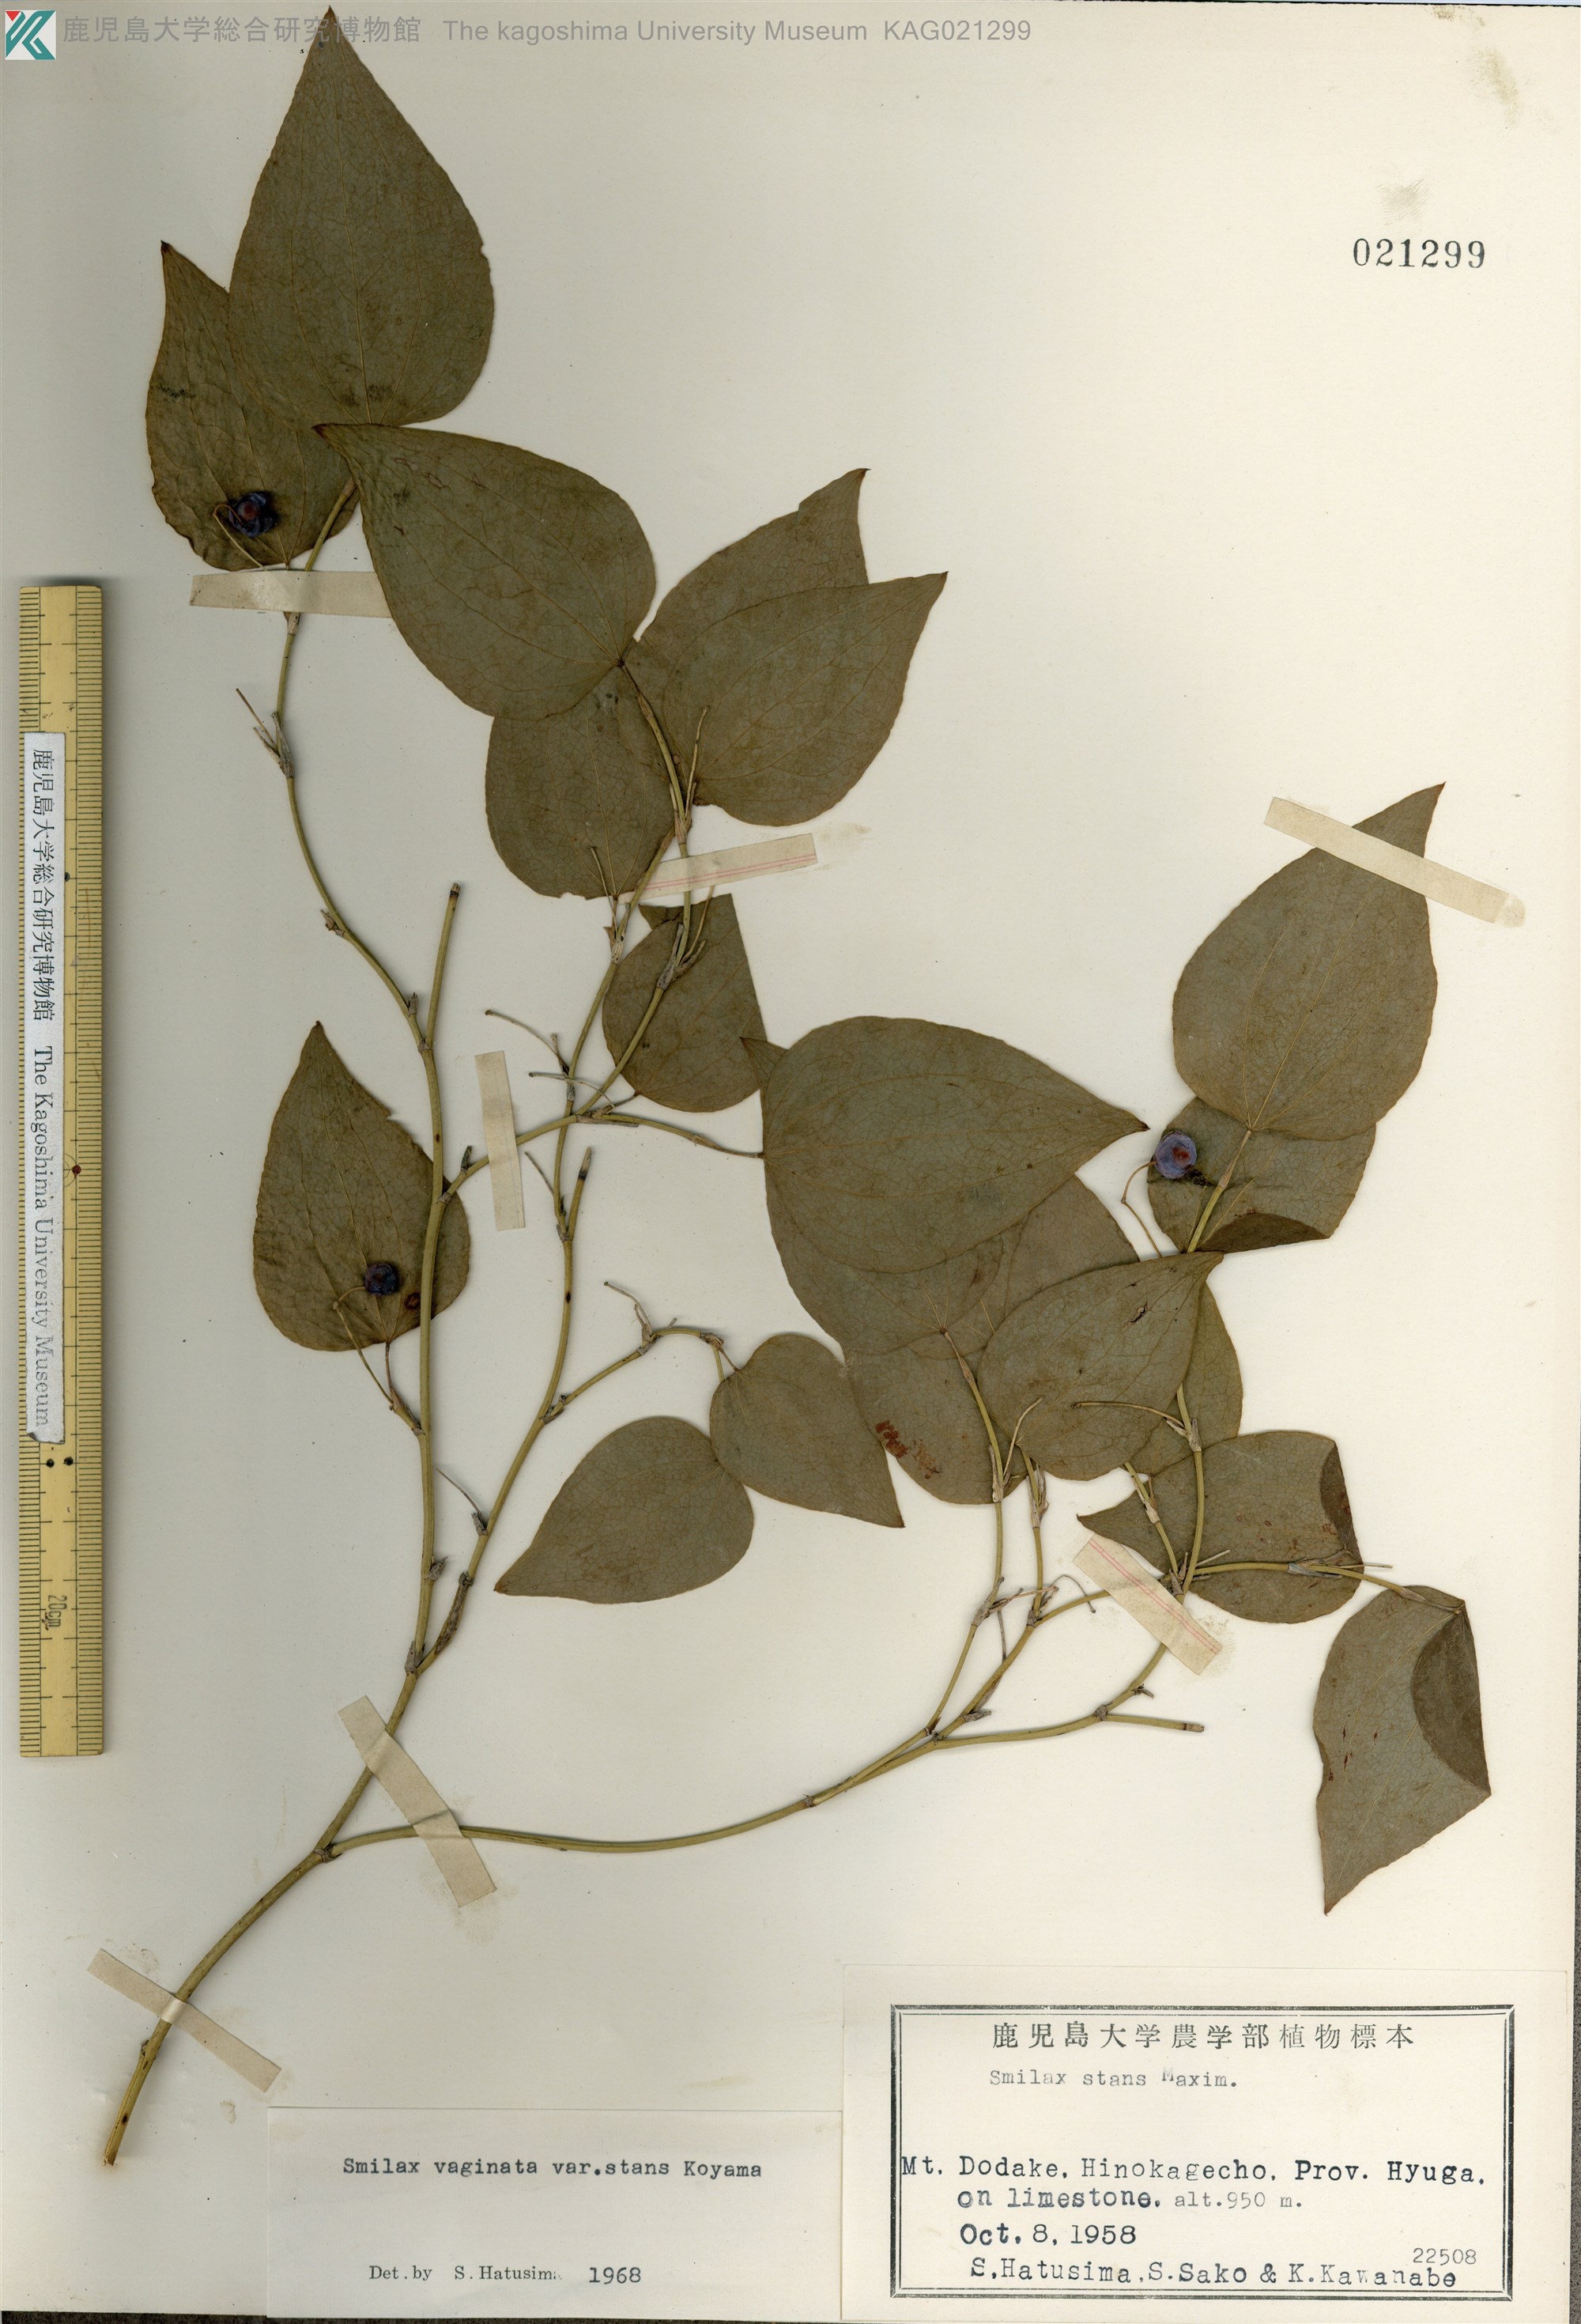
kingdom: Plantae
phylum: Tracheophyta
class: Liliopsida
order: Liliales
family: Smilacaceae
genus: Smilax
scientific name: Smilax stans
